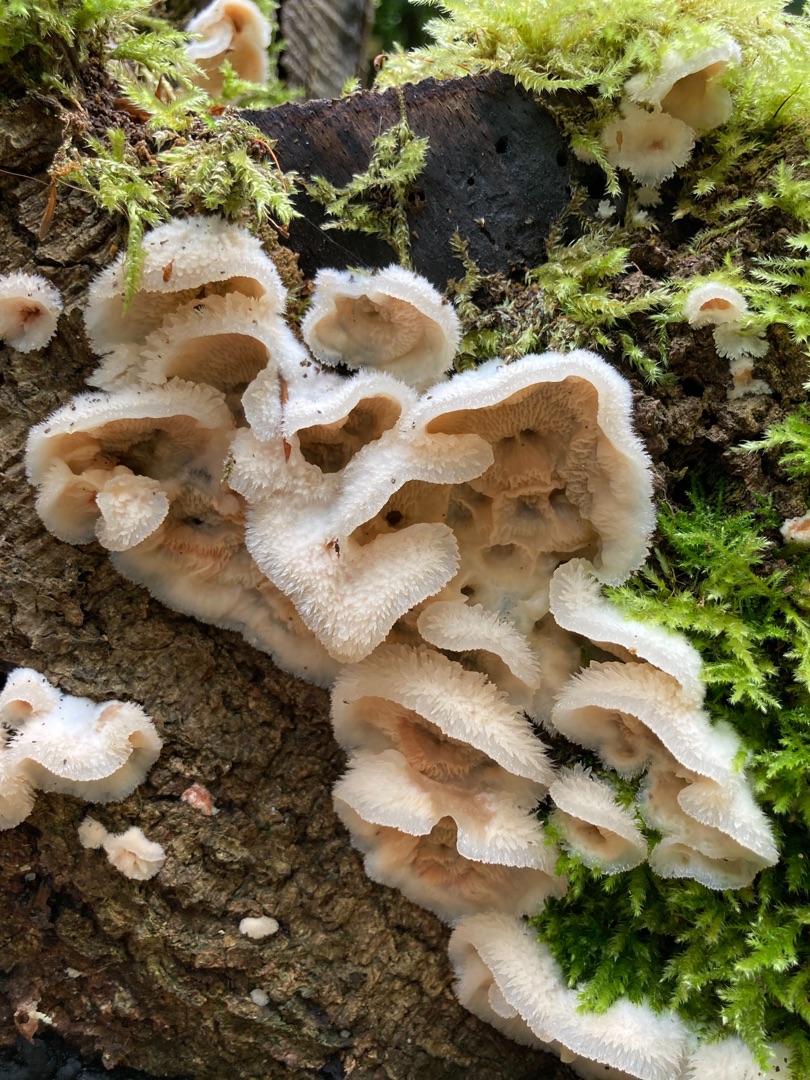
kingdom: Fungi
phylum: Basidiomycota
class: Agaricomycetes
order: Polyporales
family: Meruliaceae
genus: Phlebia
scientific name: Phlebia tremellosa
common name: Bævrende åresvamp
